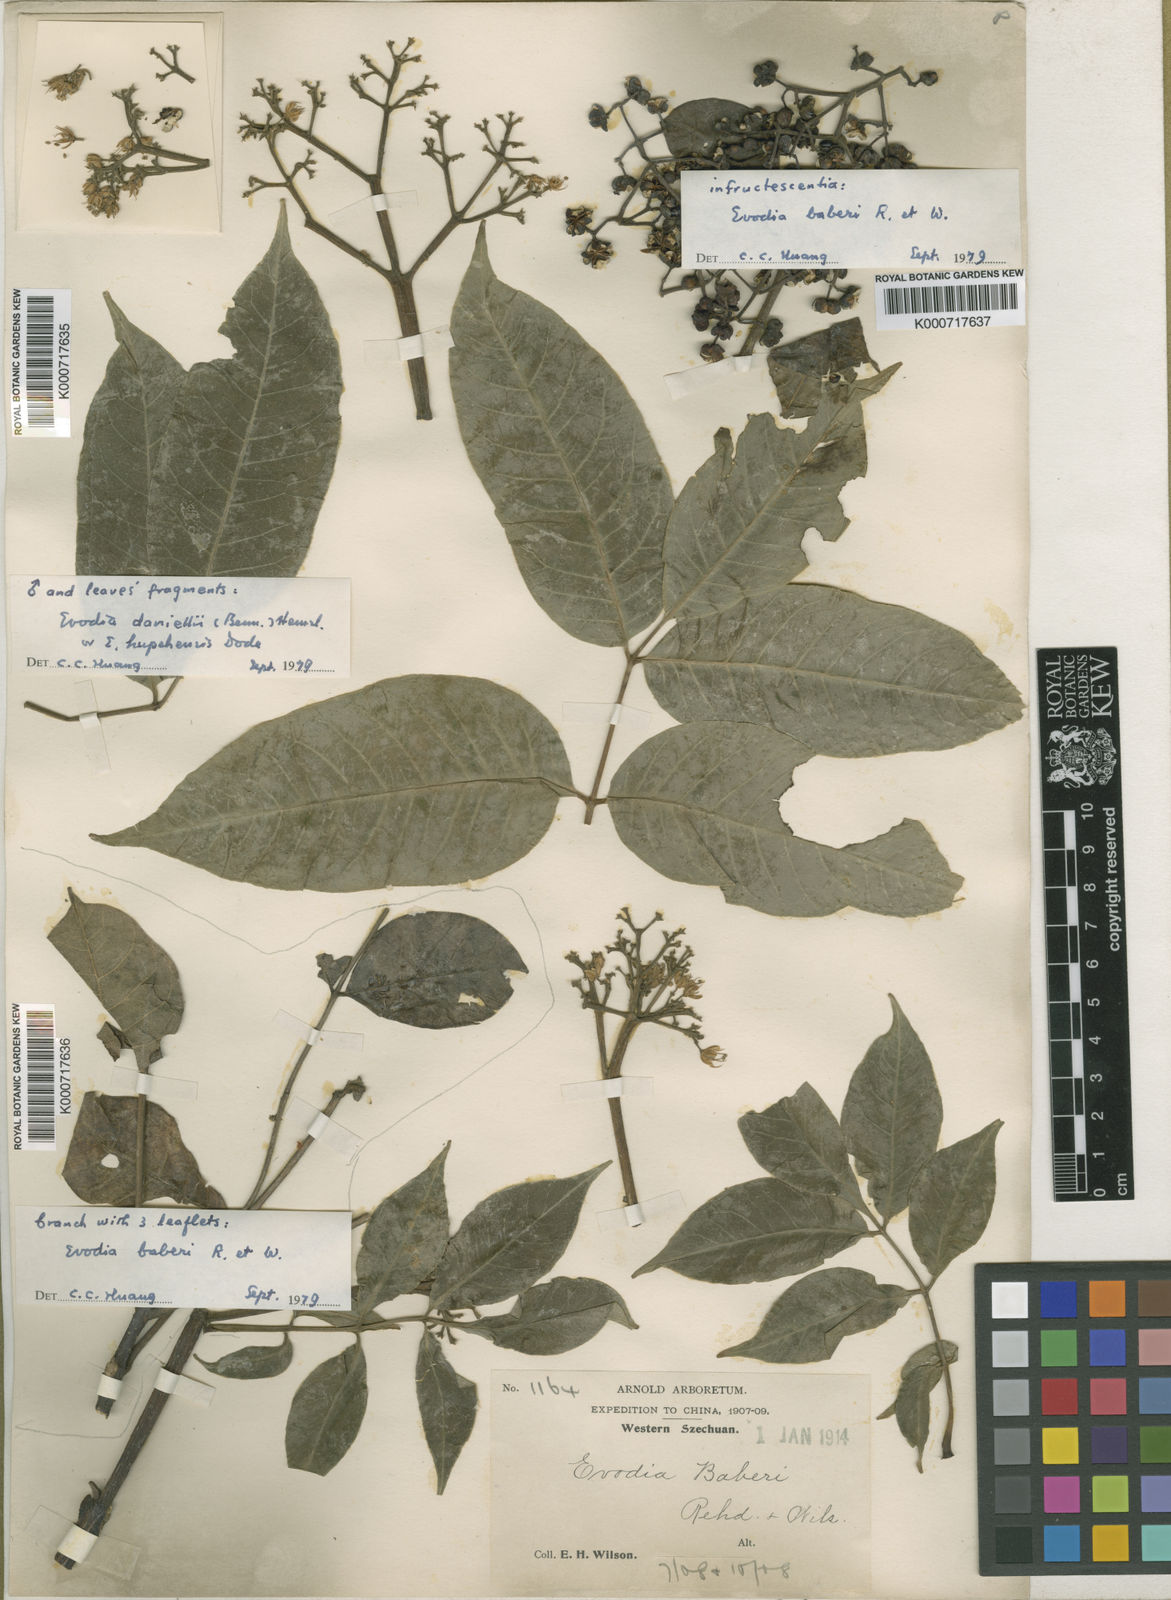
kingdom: Plantae
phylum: Tracheophyta
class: Magnoliopsida
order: Sapindales
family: Rutaceae
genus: Tetradium
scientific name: Tetradium daniellii
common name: Bee-bee tree
